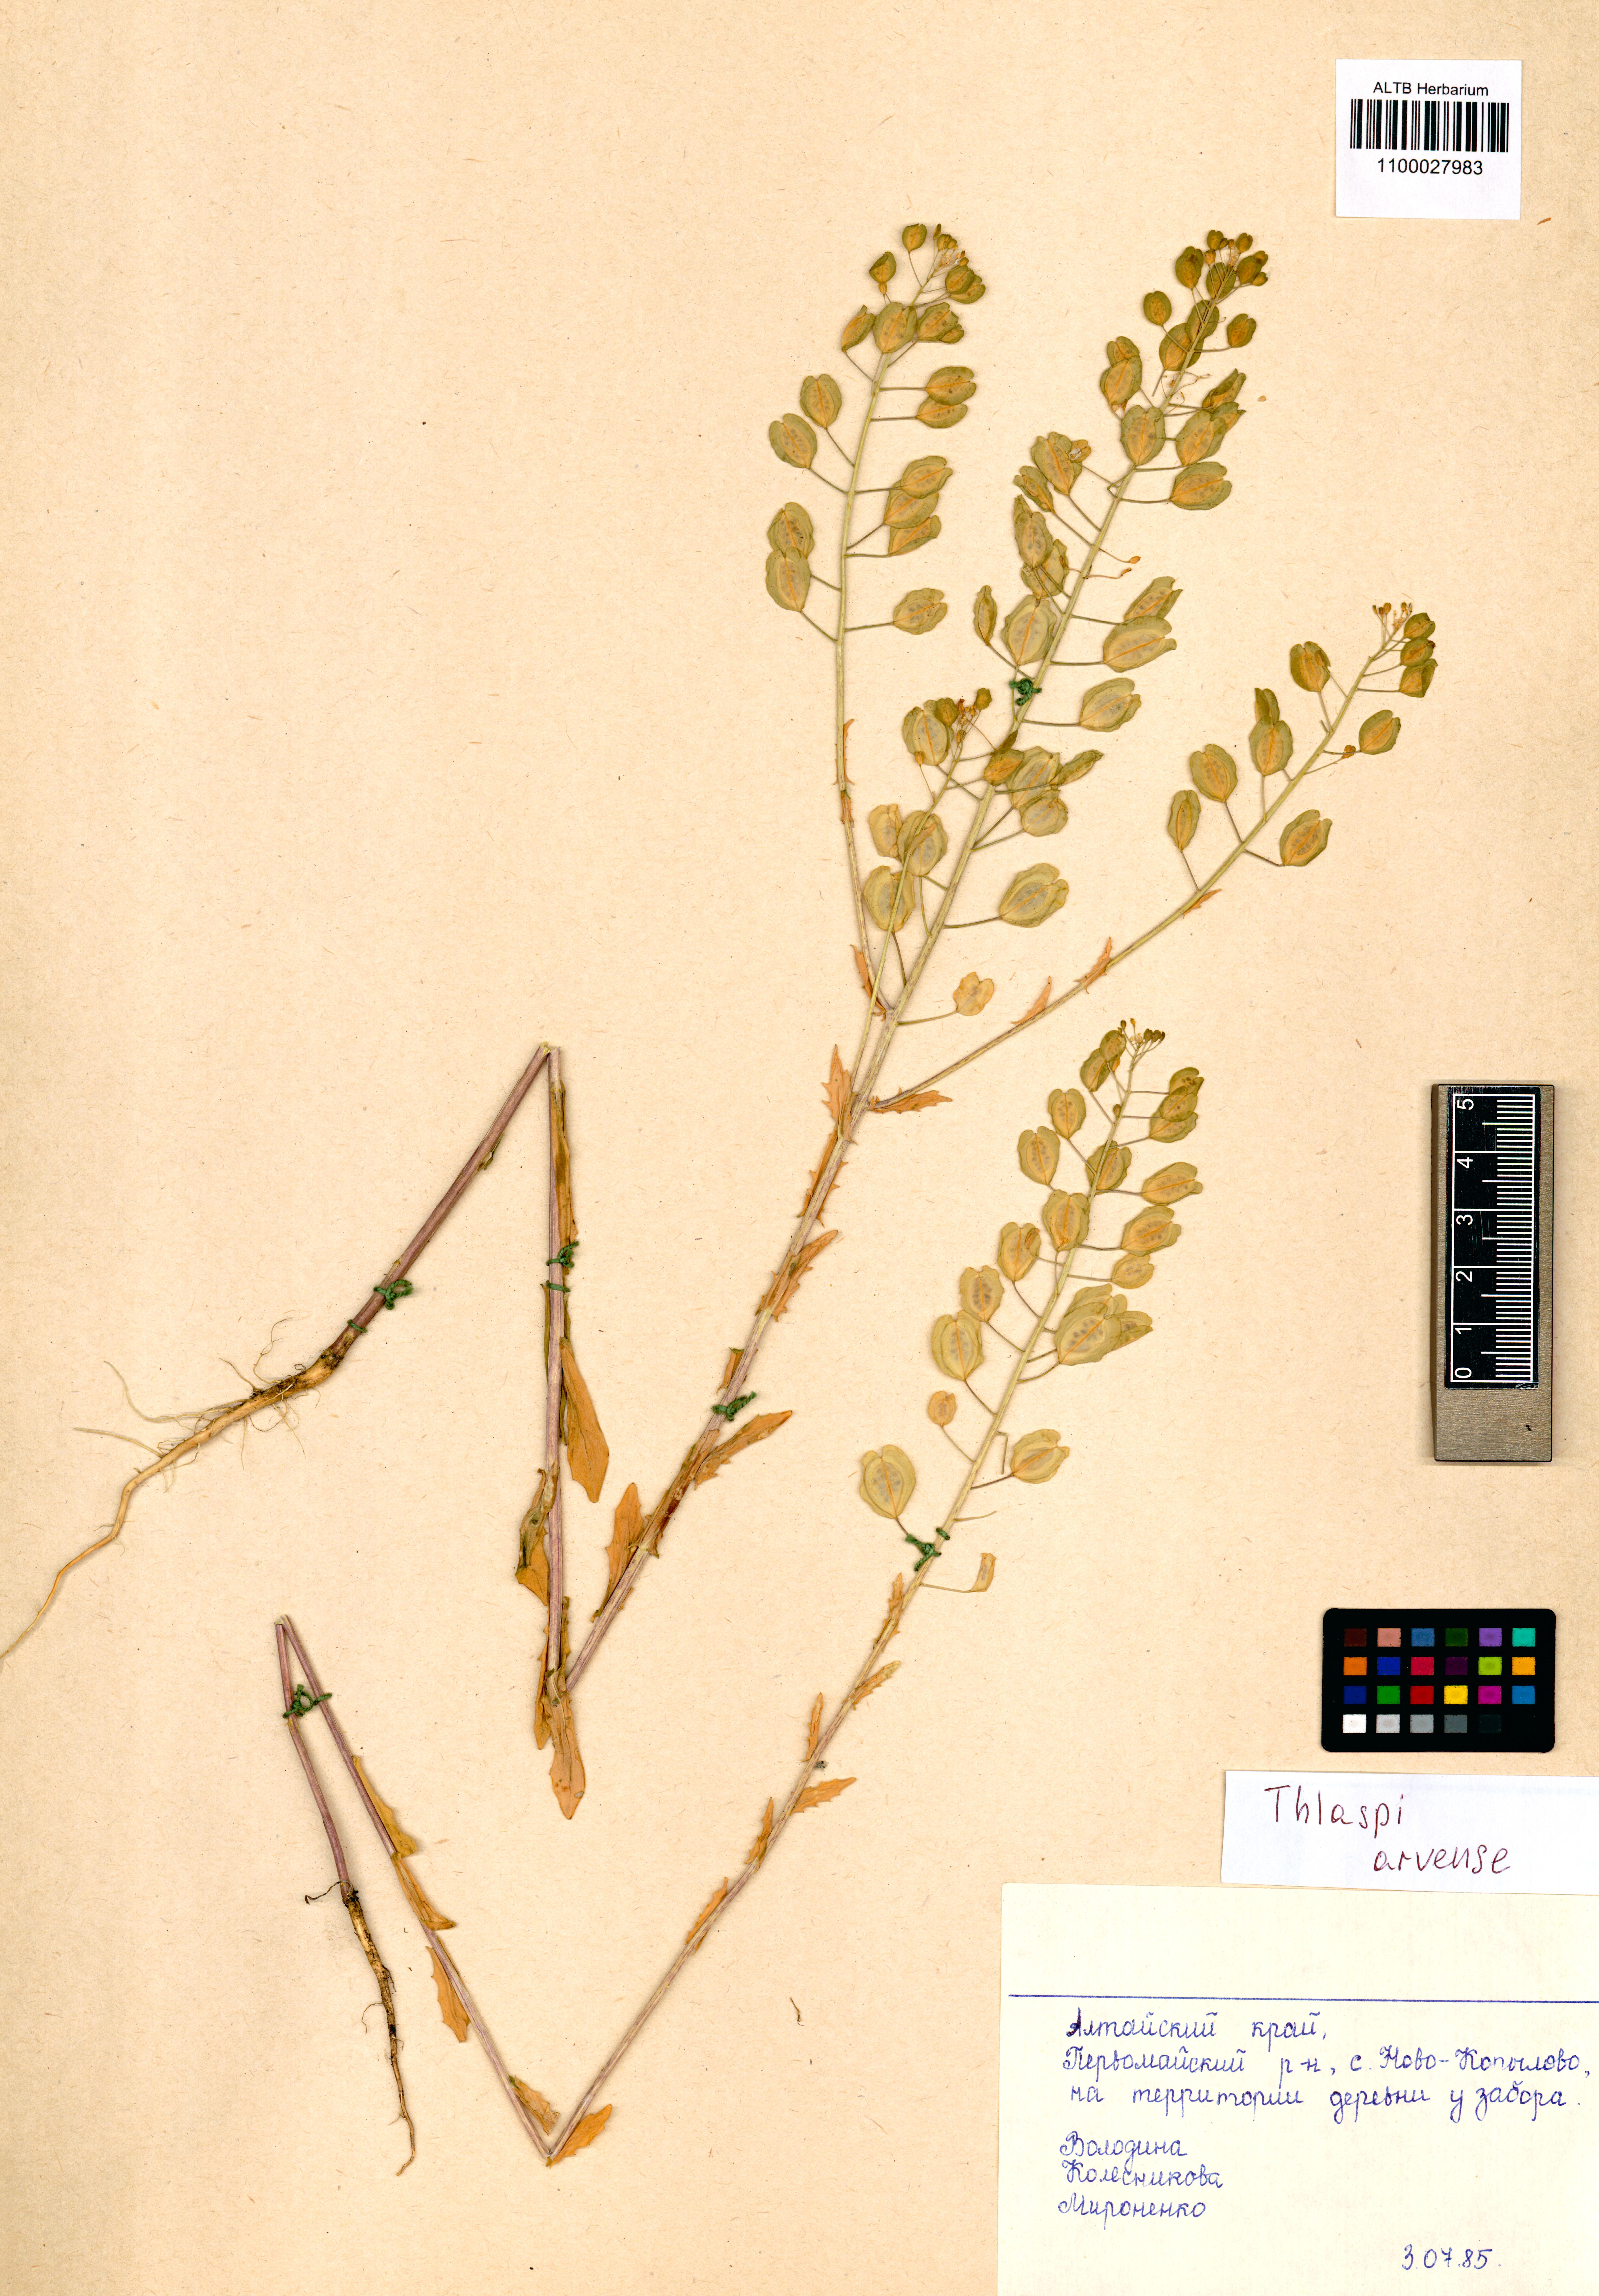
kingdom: Plantae
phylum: Tracheophyta
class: Magnoliopsida
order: Brassicales
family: Brassicaceae
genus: Thlaspi
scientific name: Thlaspi arvense
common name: Field pennycress
